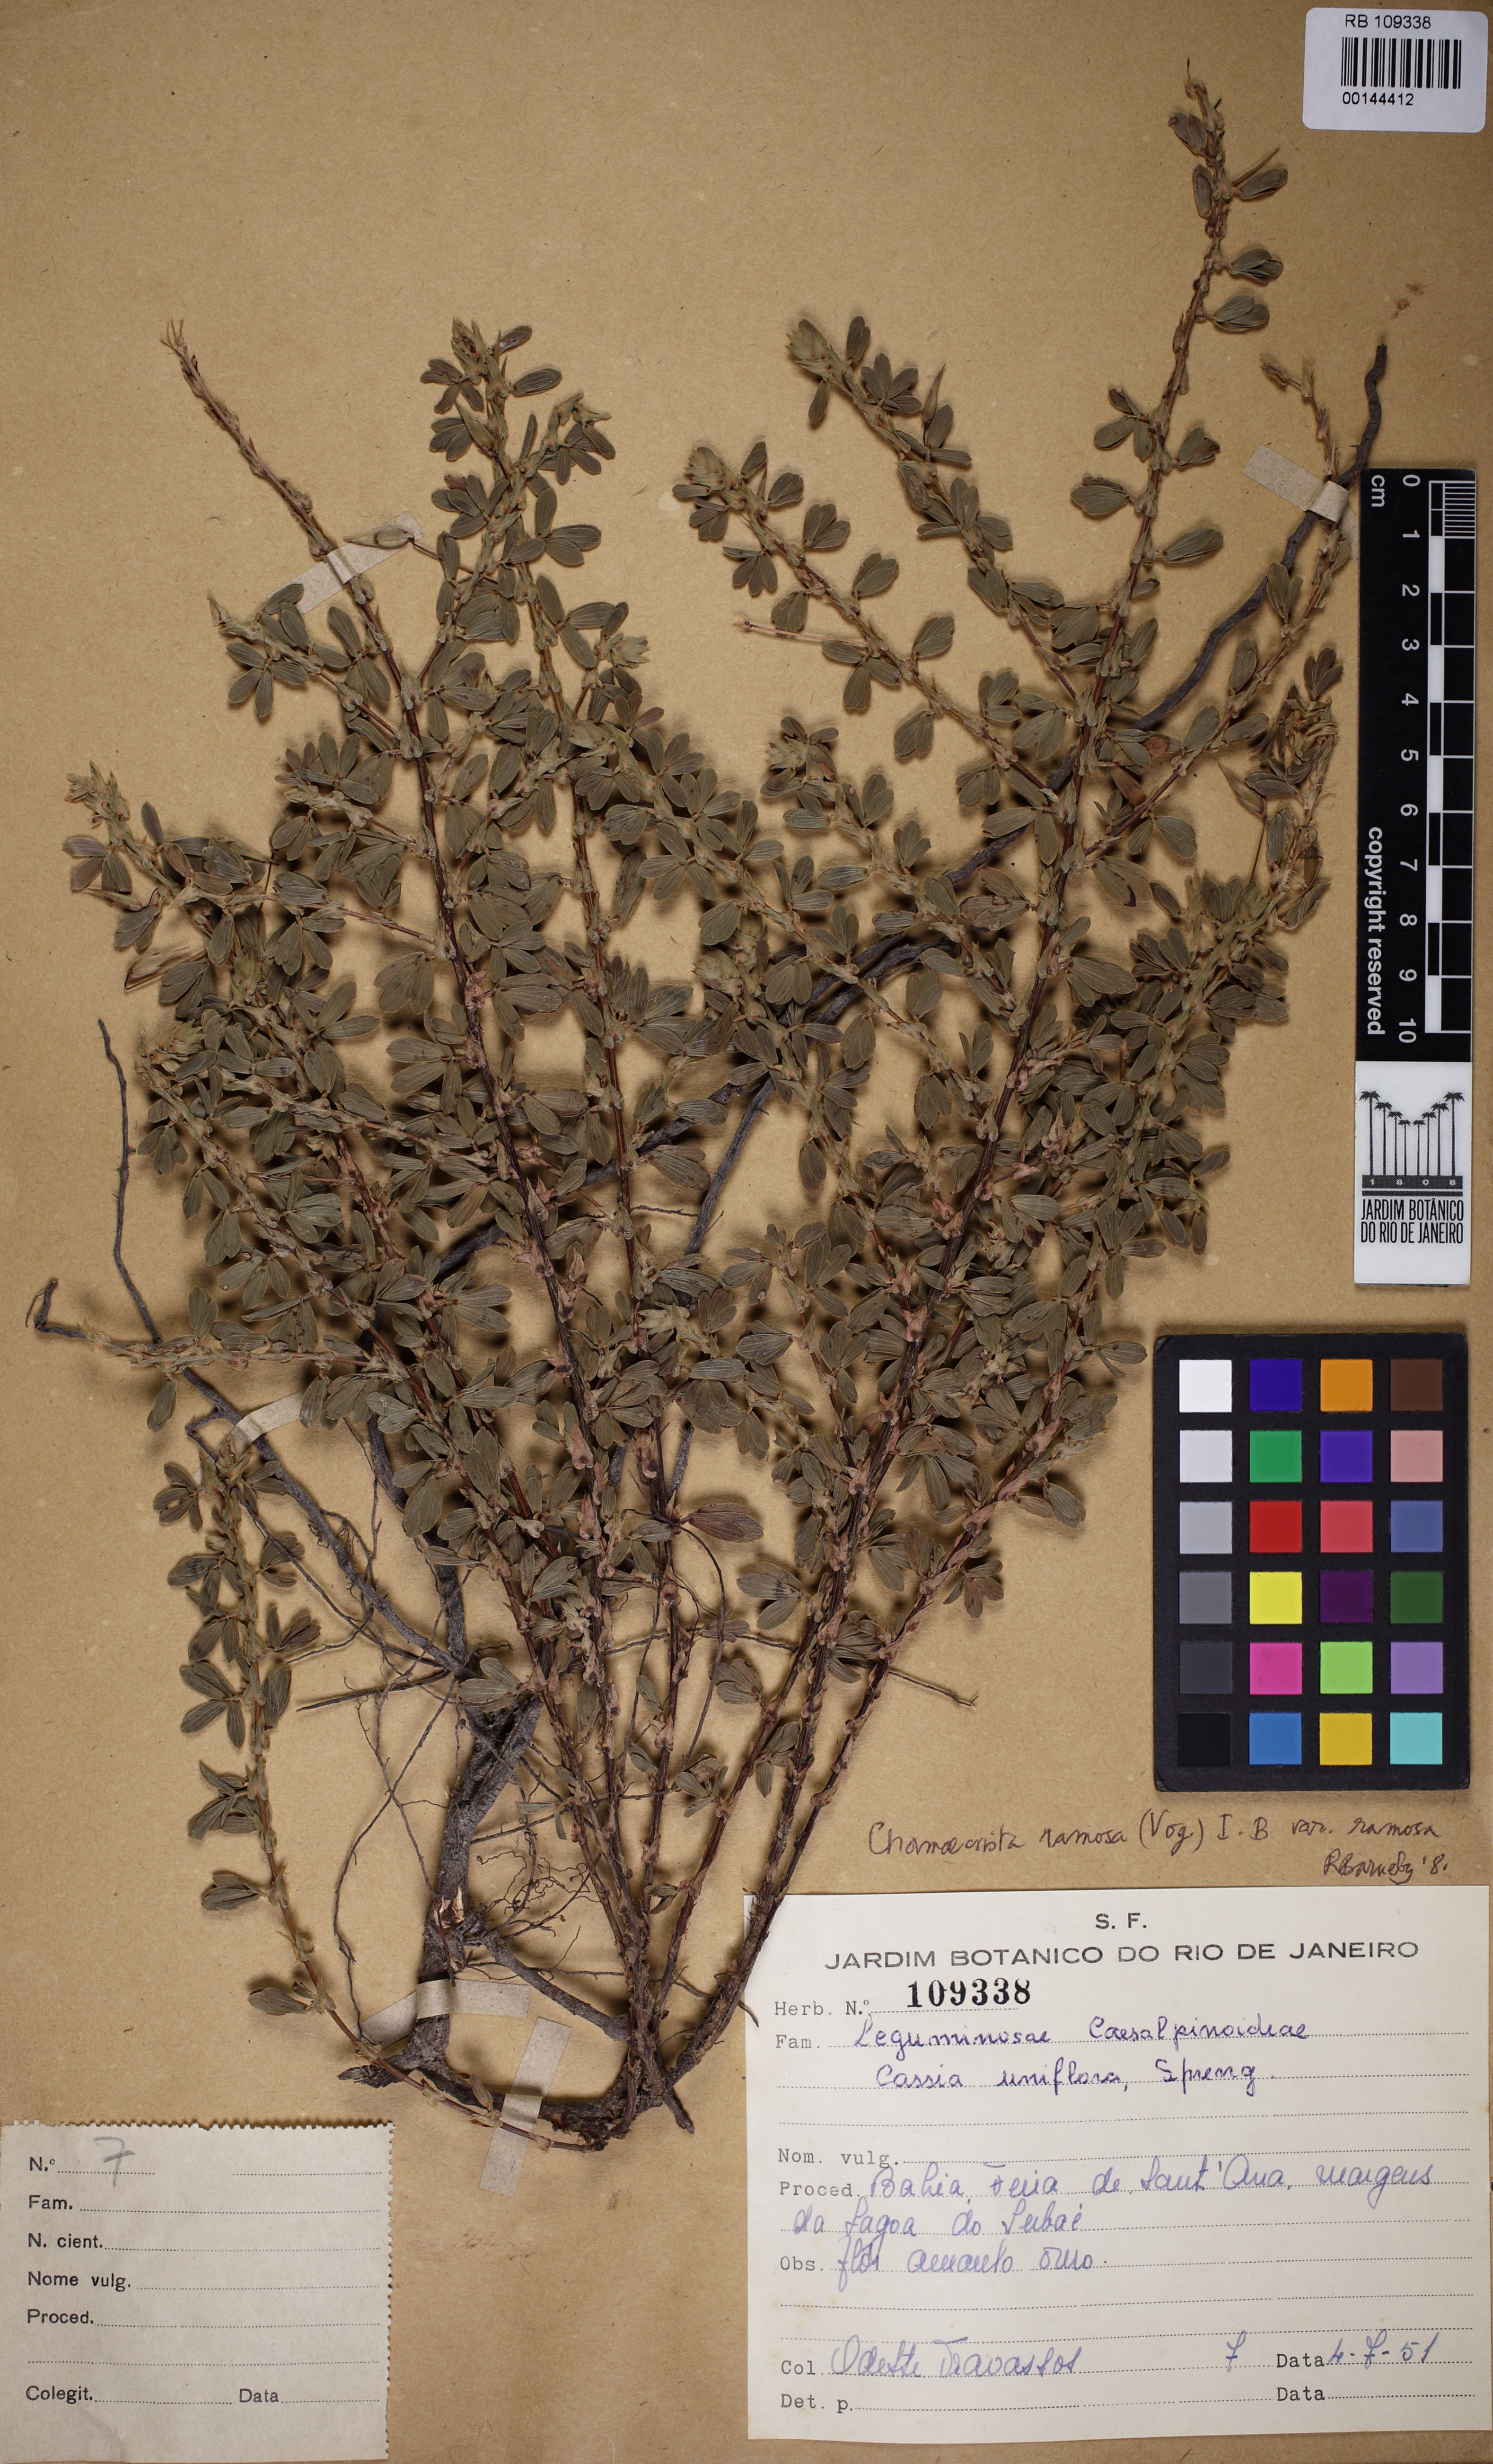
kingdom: Plantae
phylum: Tracheophyta
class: Magnoliopsida
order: Fabales
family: Fabaceae
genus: Chamaecrista
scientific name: Chamaecrista ramosa
